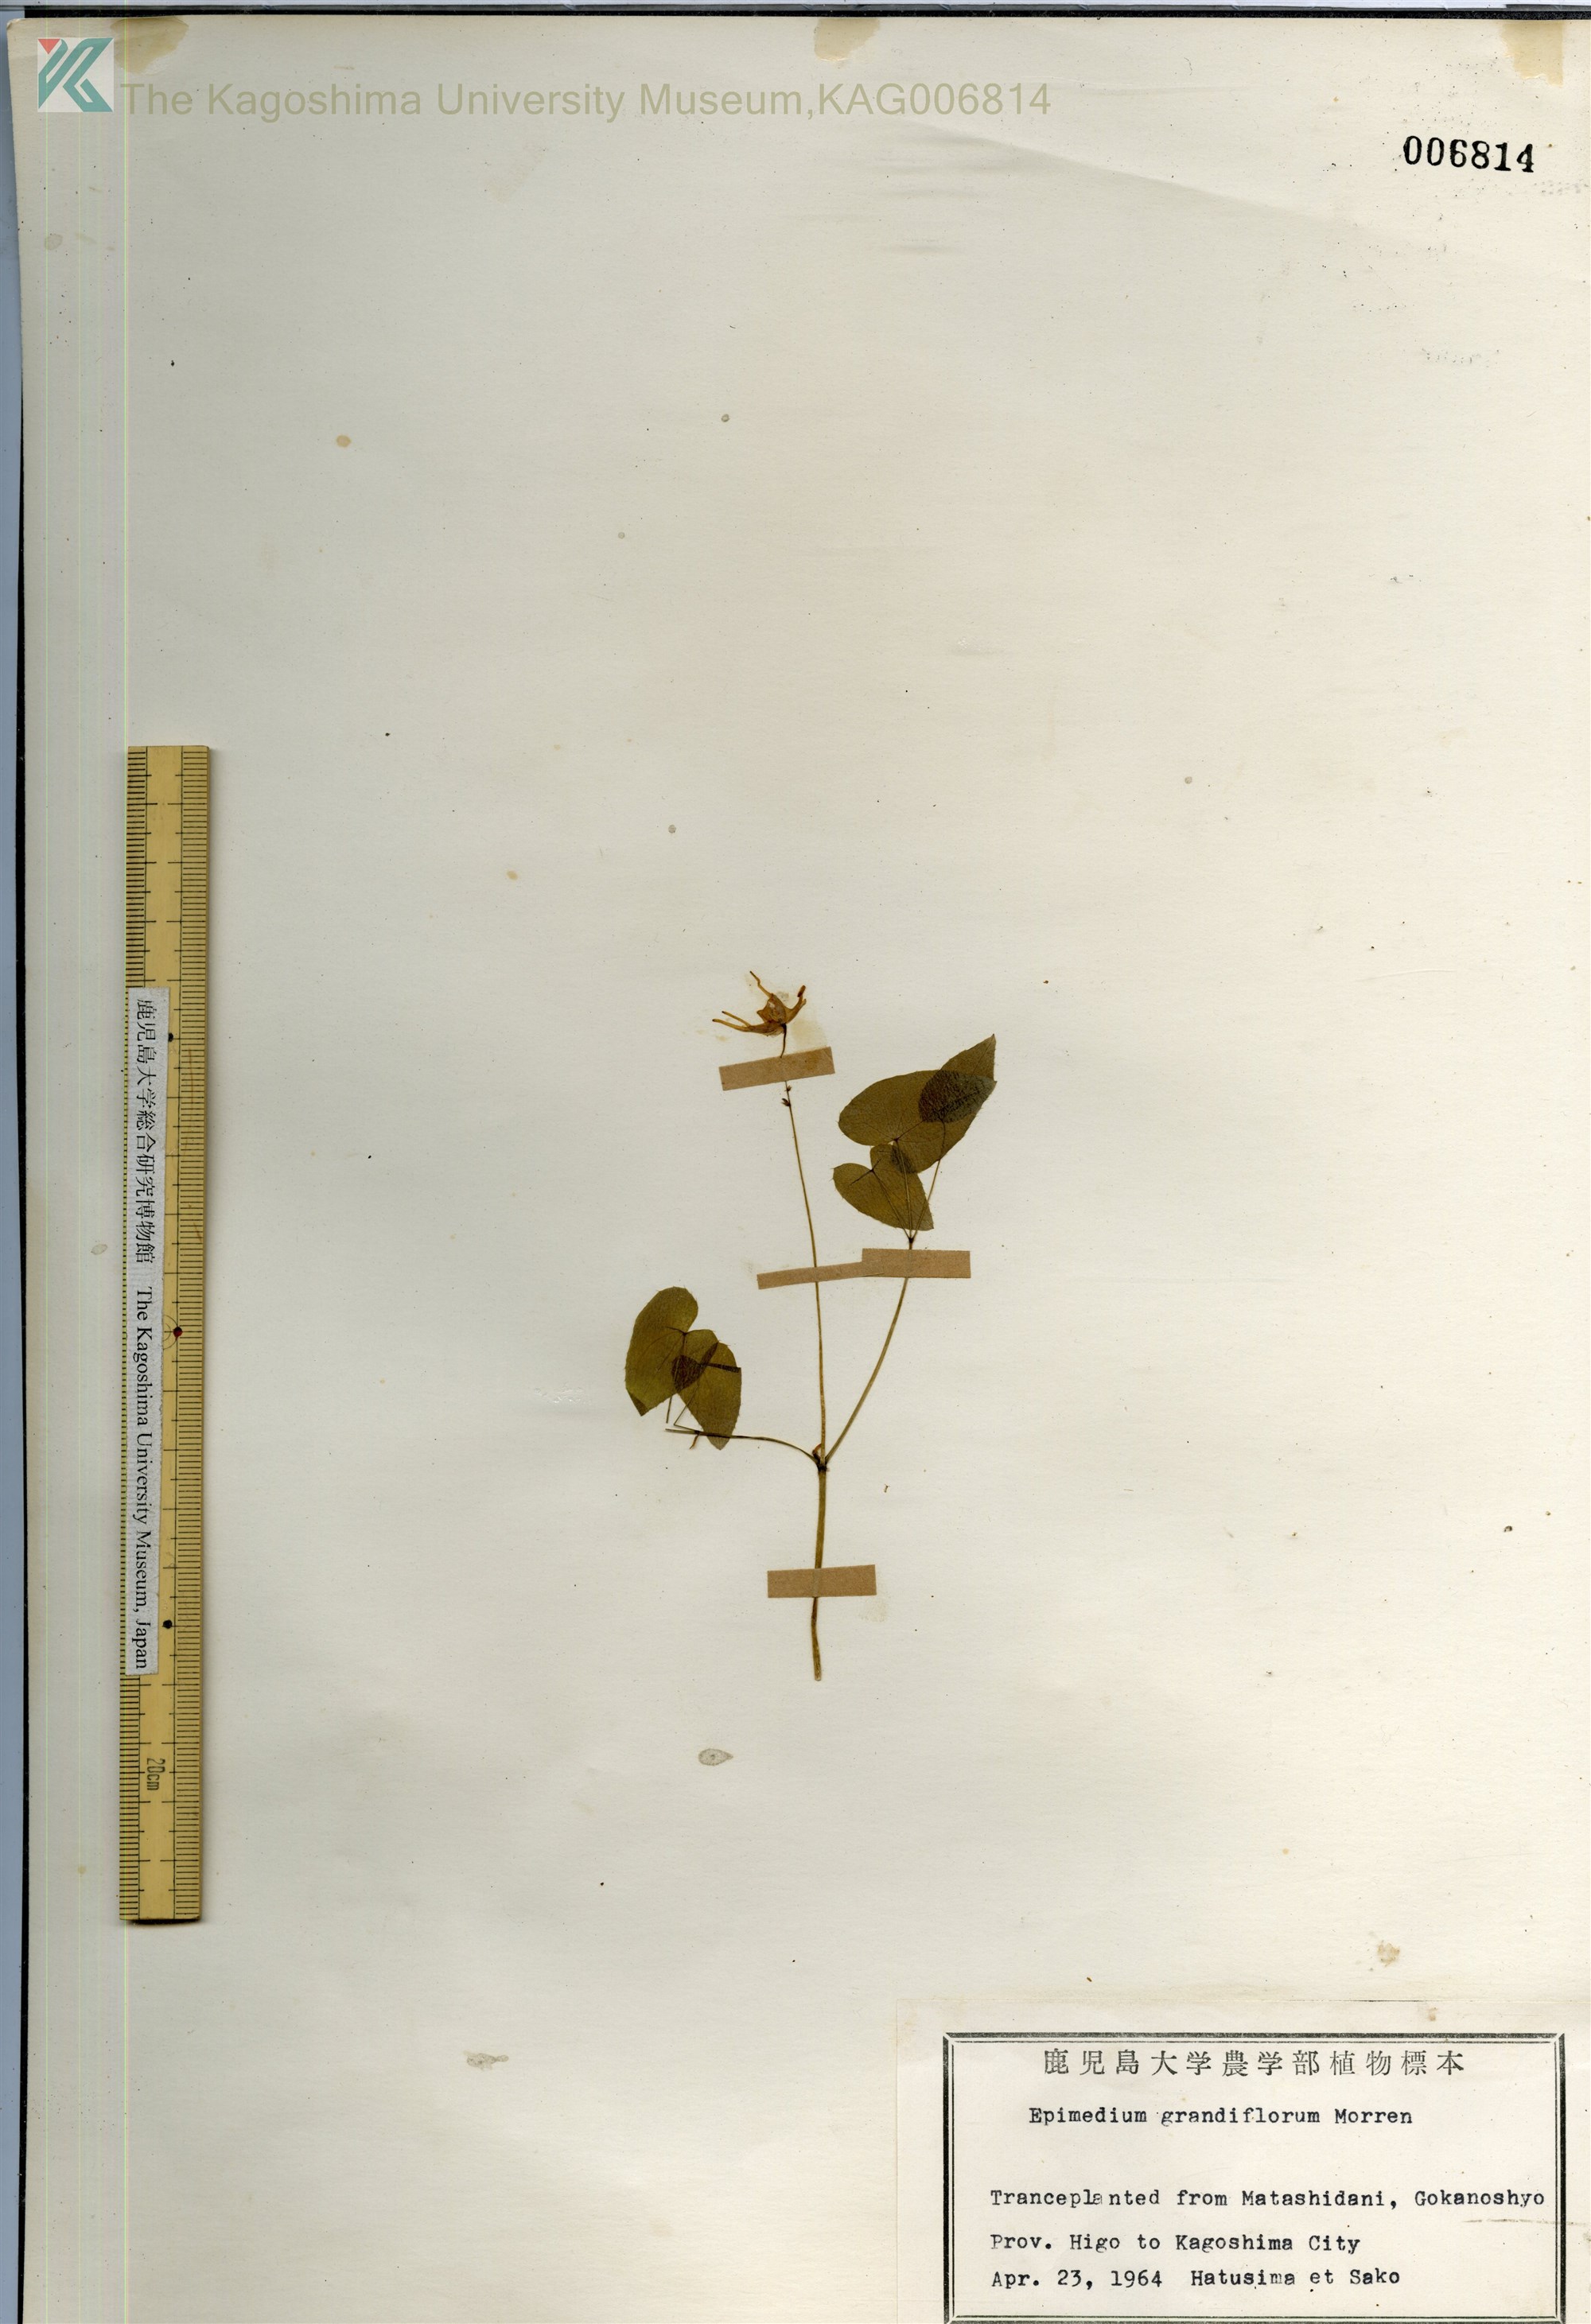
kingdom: Plantae
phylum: Tracheophyta
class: Magnoliopsida
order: Ranunculales
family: Berberidaceae
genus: Epimedium
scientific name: Epimedium grandiflorum
